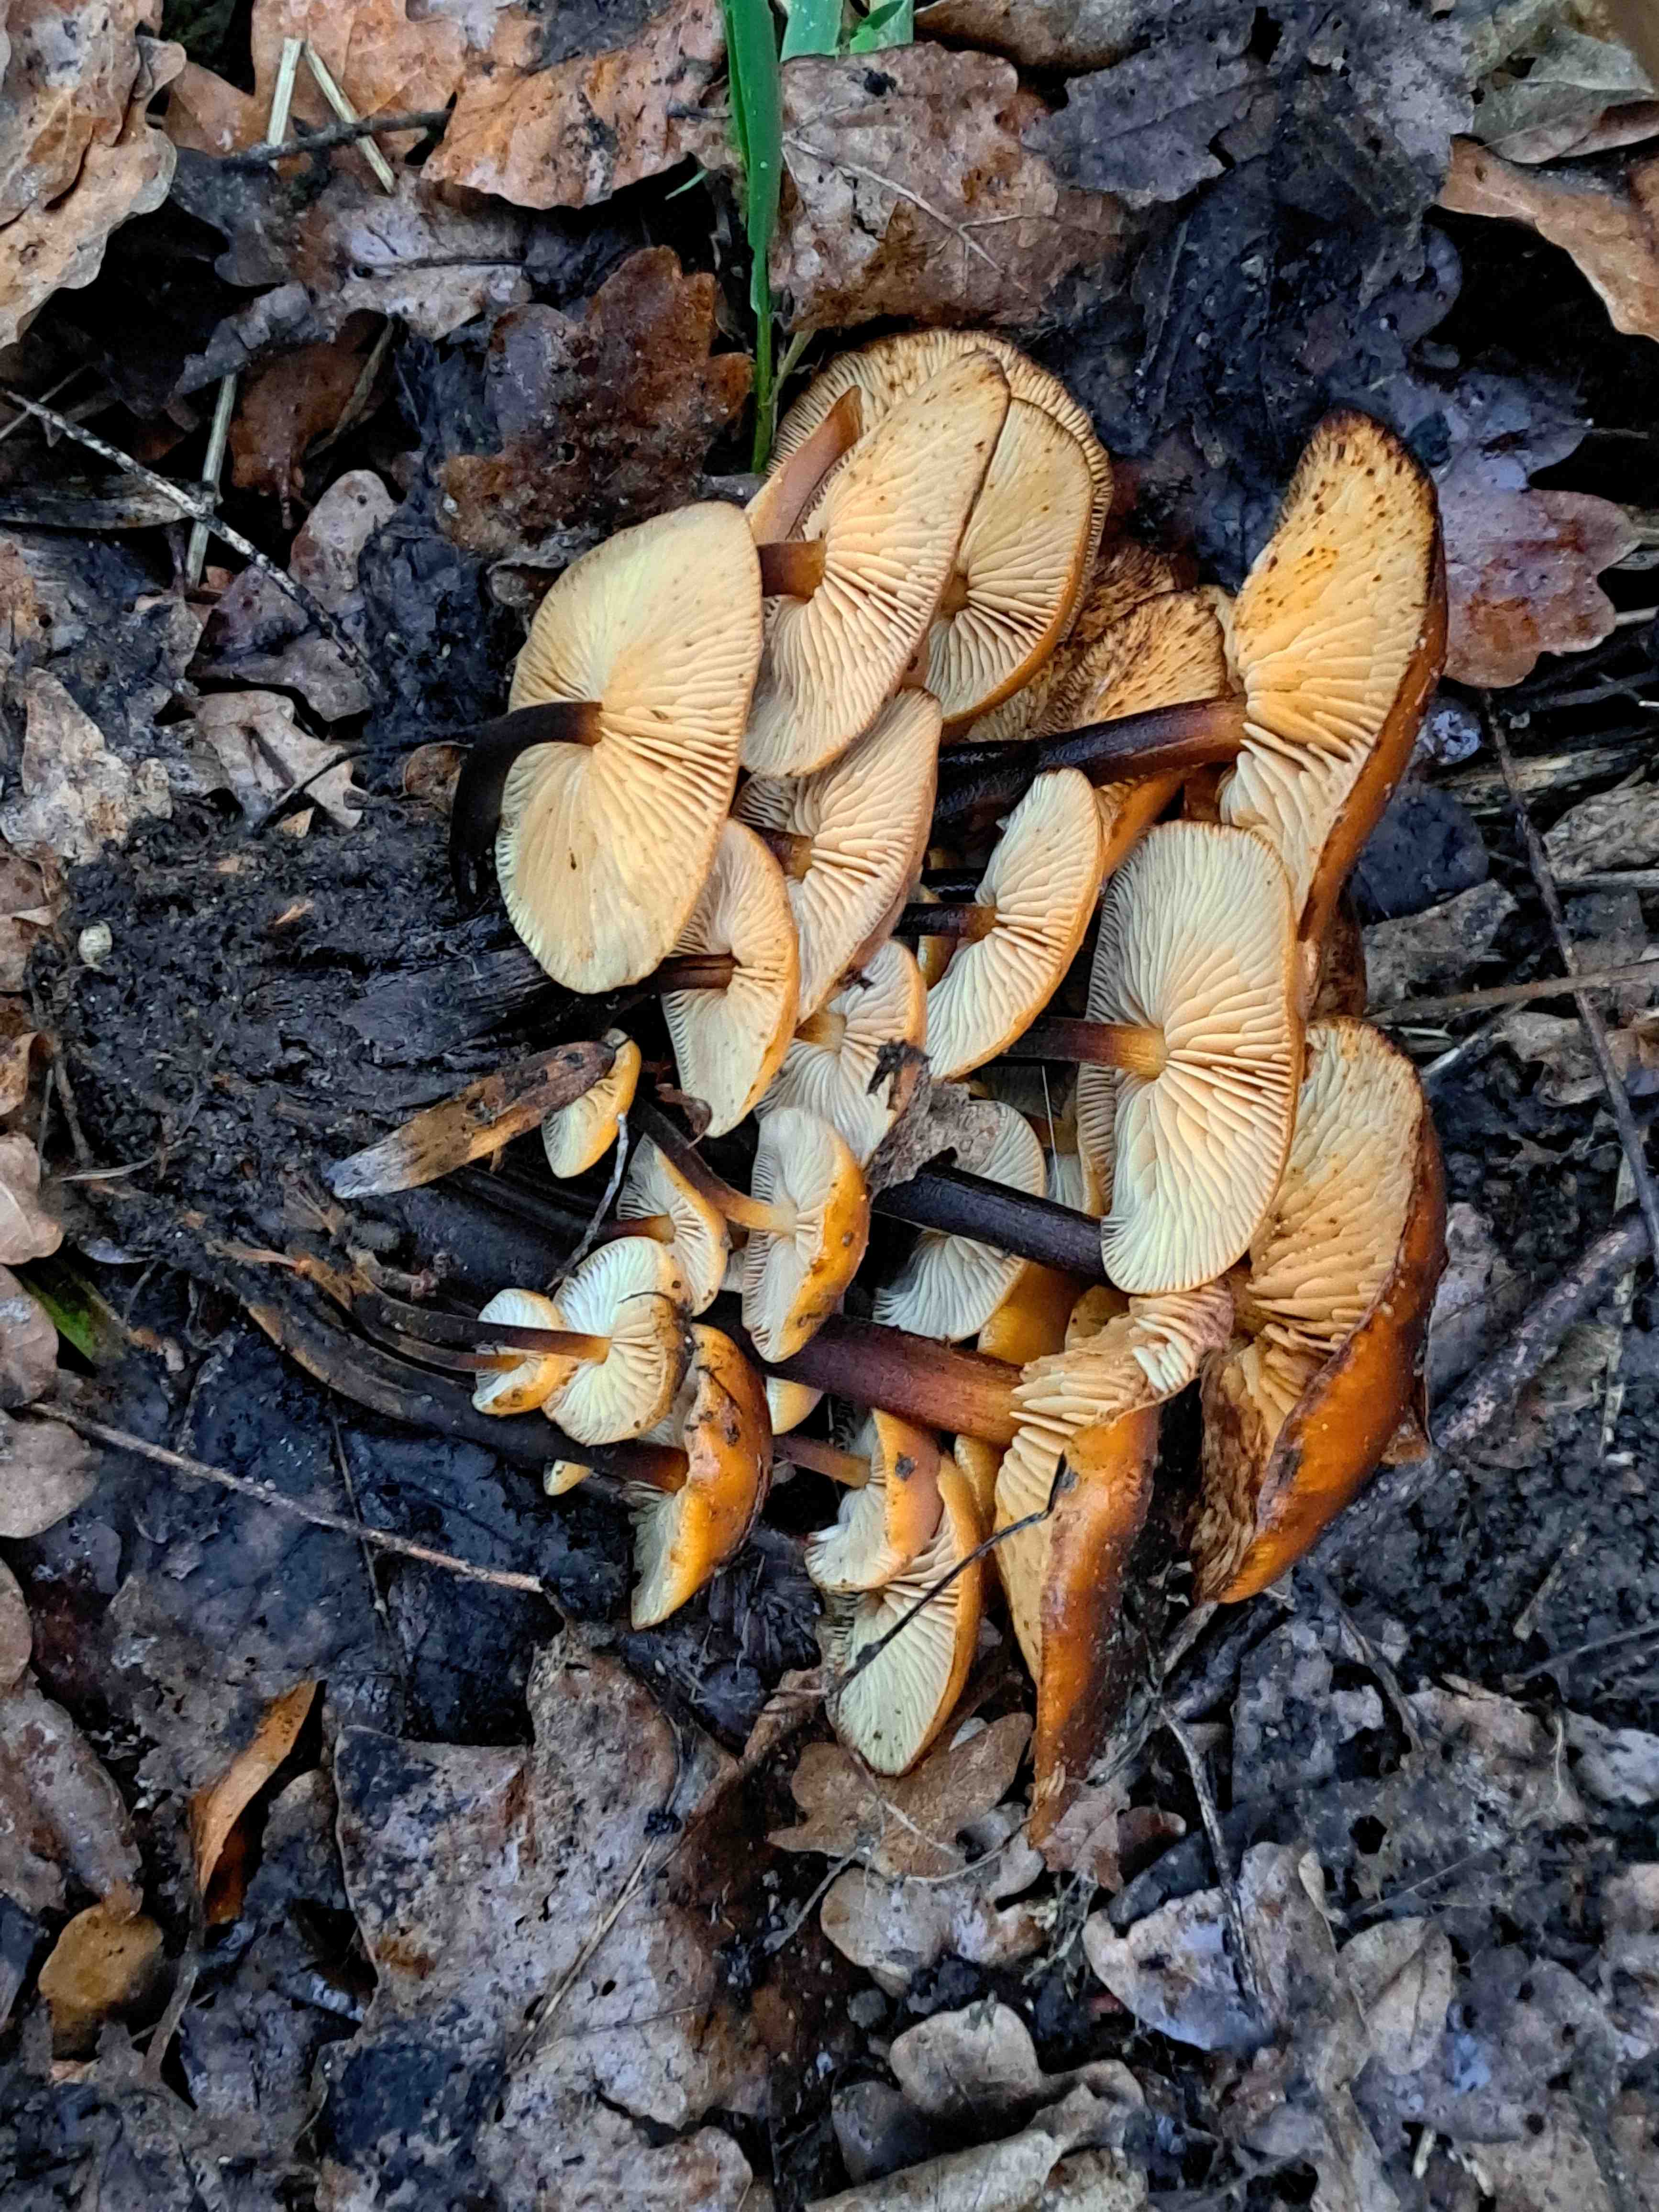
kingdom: Fungi
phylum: Basidiomycota
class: Agaricomycetes
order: Agaricales
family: Physalacriaceae
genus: Flammulina
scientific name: Flammulina velutipes
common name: gul fløjlsfod
